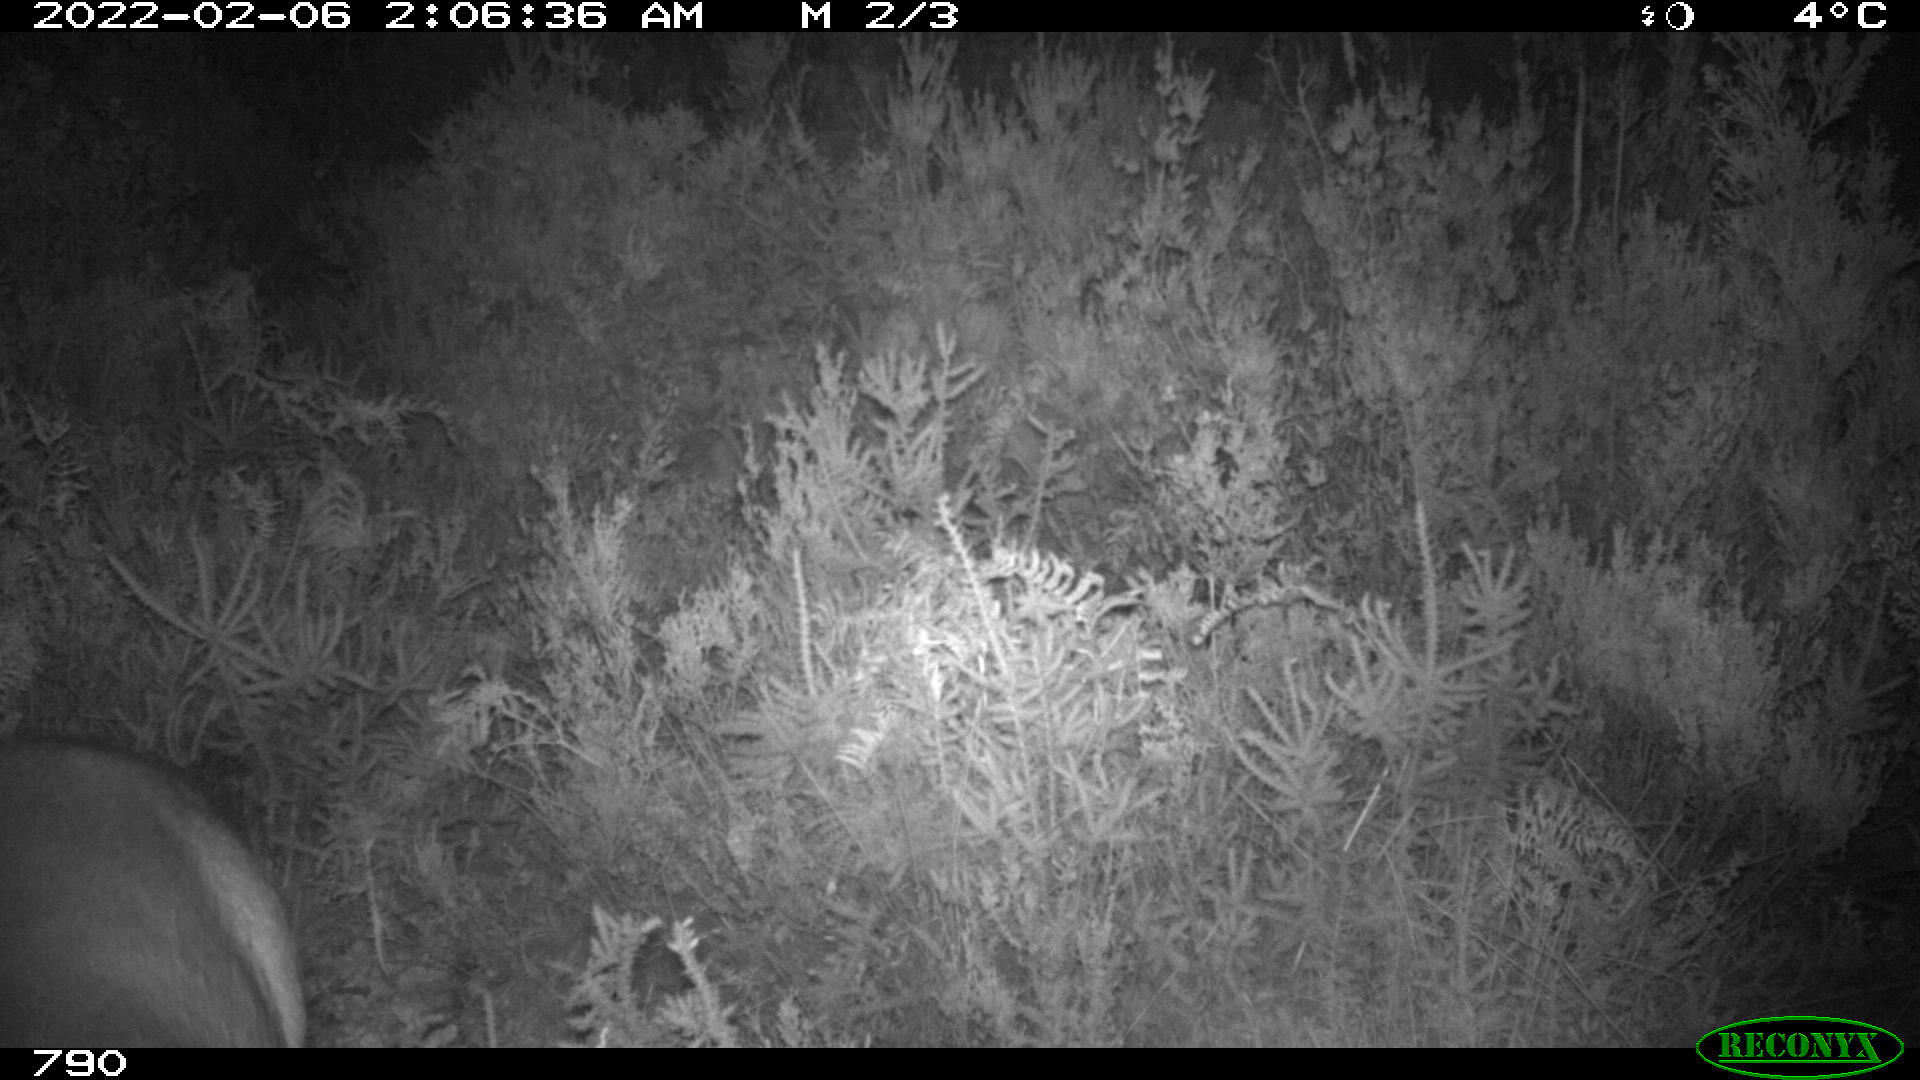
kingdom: Animalia
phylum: Chordata
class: Mammalia
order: Artiodactyla
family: Cervidae
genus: Capreolus
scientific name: Capreolus capreolus
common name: Western roe deer
